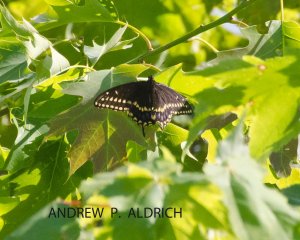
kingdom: Animalia
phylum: Arthropoda
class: Insecta
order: Lepidoptera
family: Papilionidae
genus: Papilio
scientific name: Papilio polyxenes
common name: Black Swallowtail
